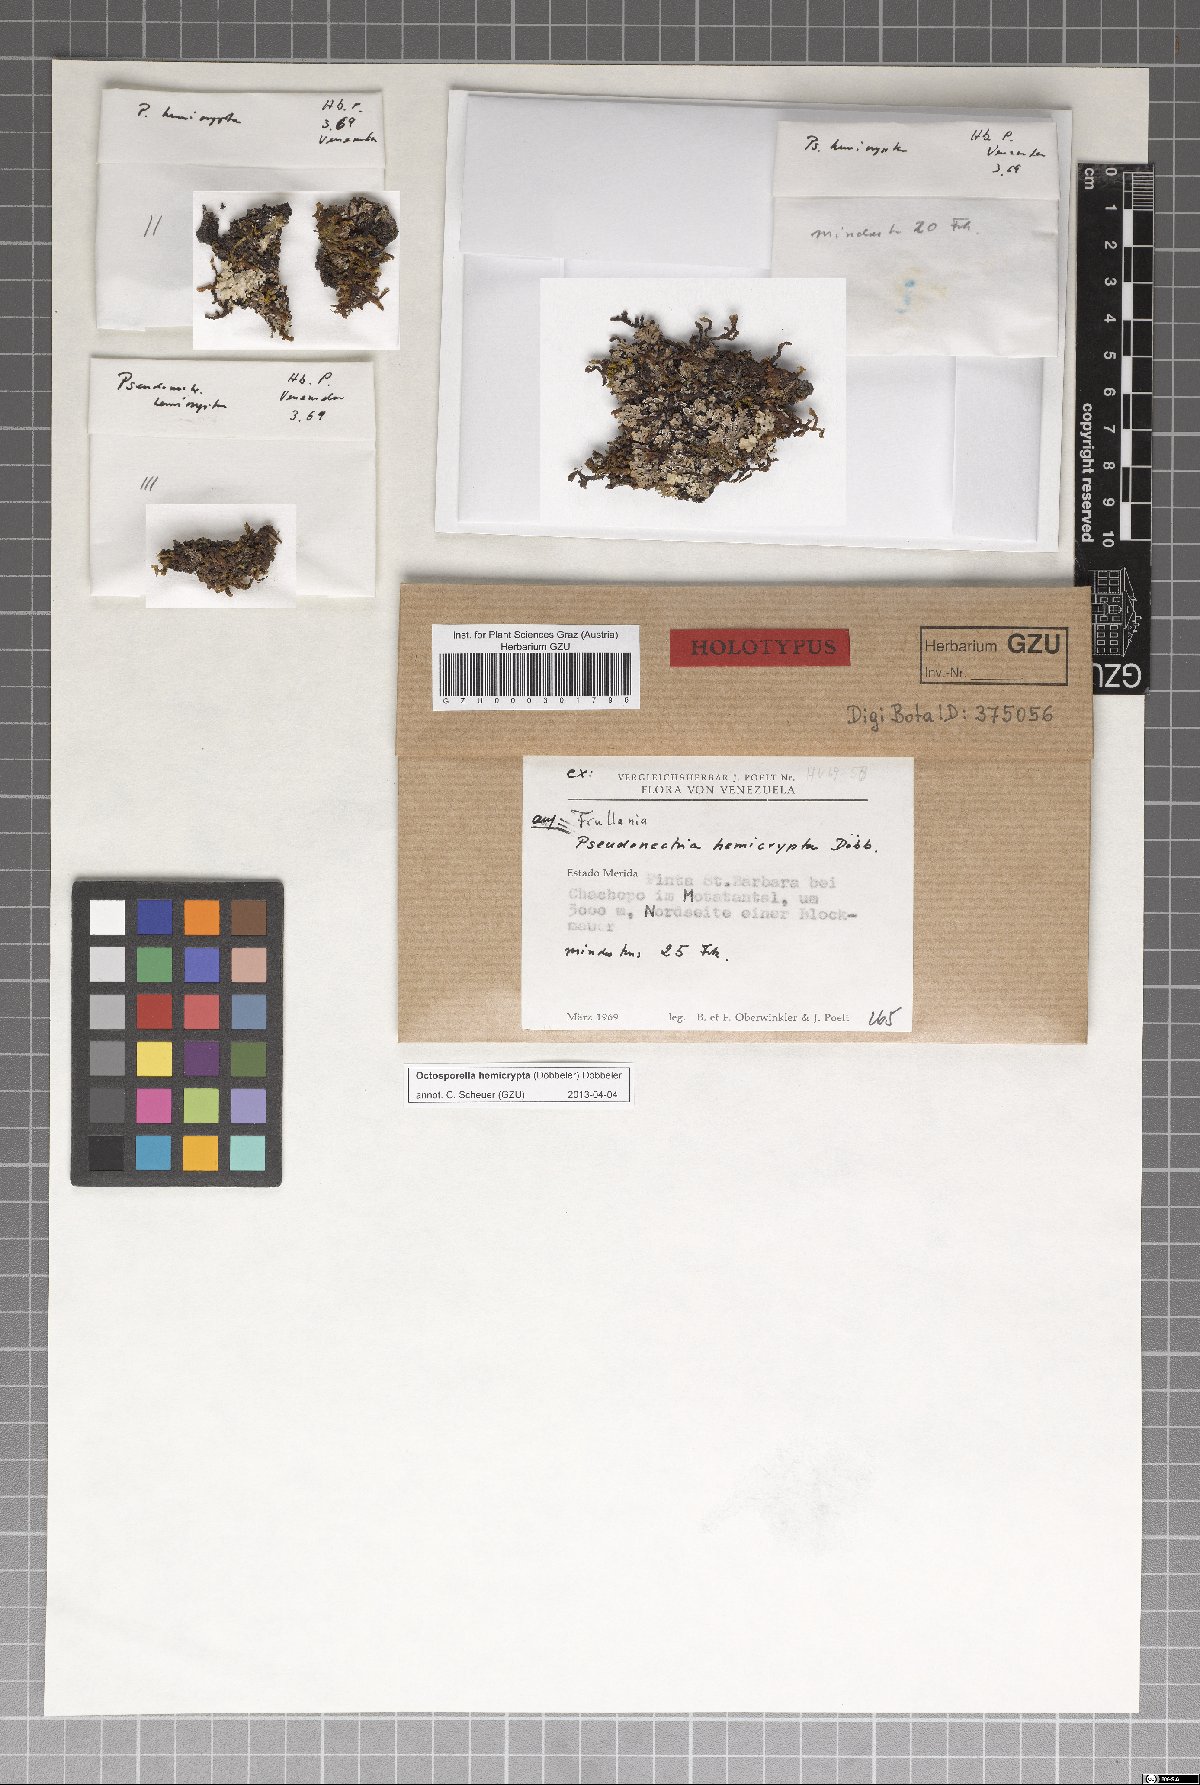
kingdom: Fungi
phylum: Ascomycota
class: Pezizomycetes
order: Pezizales
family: Pyronemataceae
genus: Octosporella
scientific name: Octosporella hemicrypta
